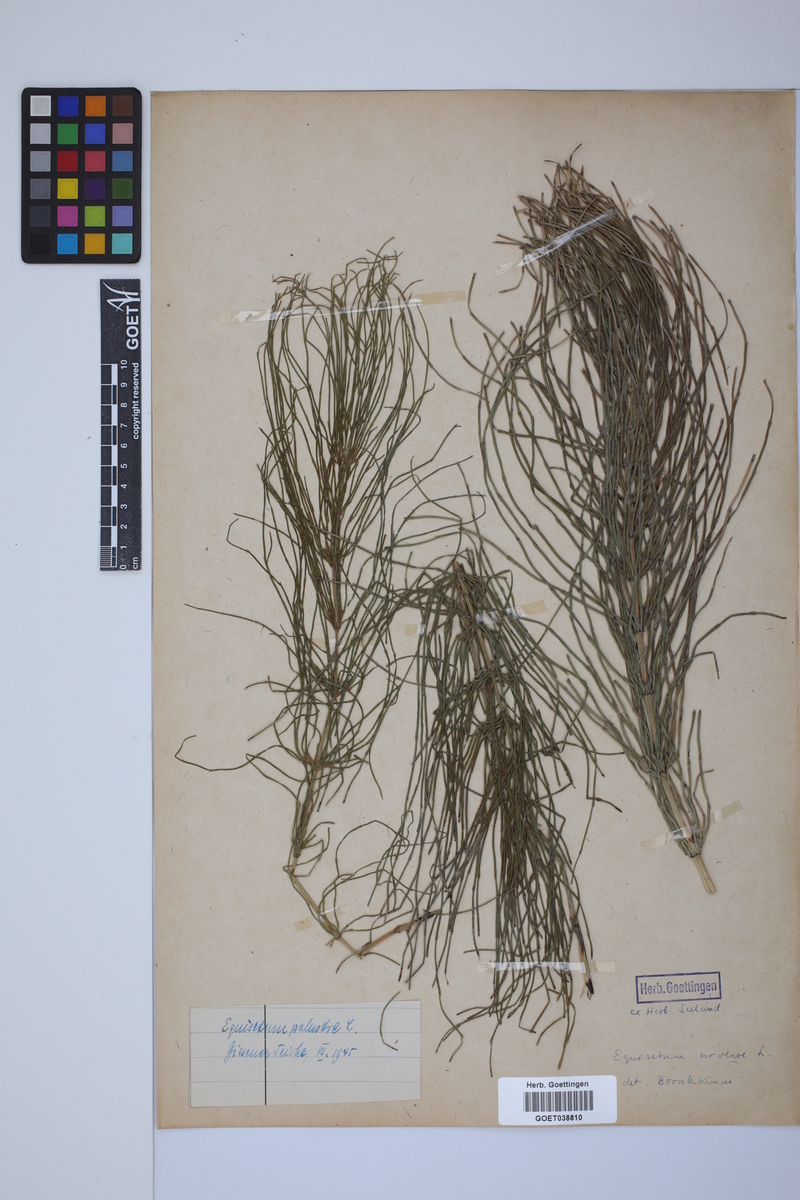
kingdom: Plantae
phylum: Tracheophyta
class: Polypodiopsida
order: Equisetales
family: Equisetaceae
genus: Equisetum
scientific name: Equisetum palustre
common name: Marsh horsetail
